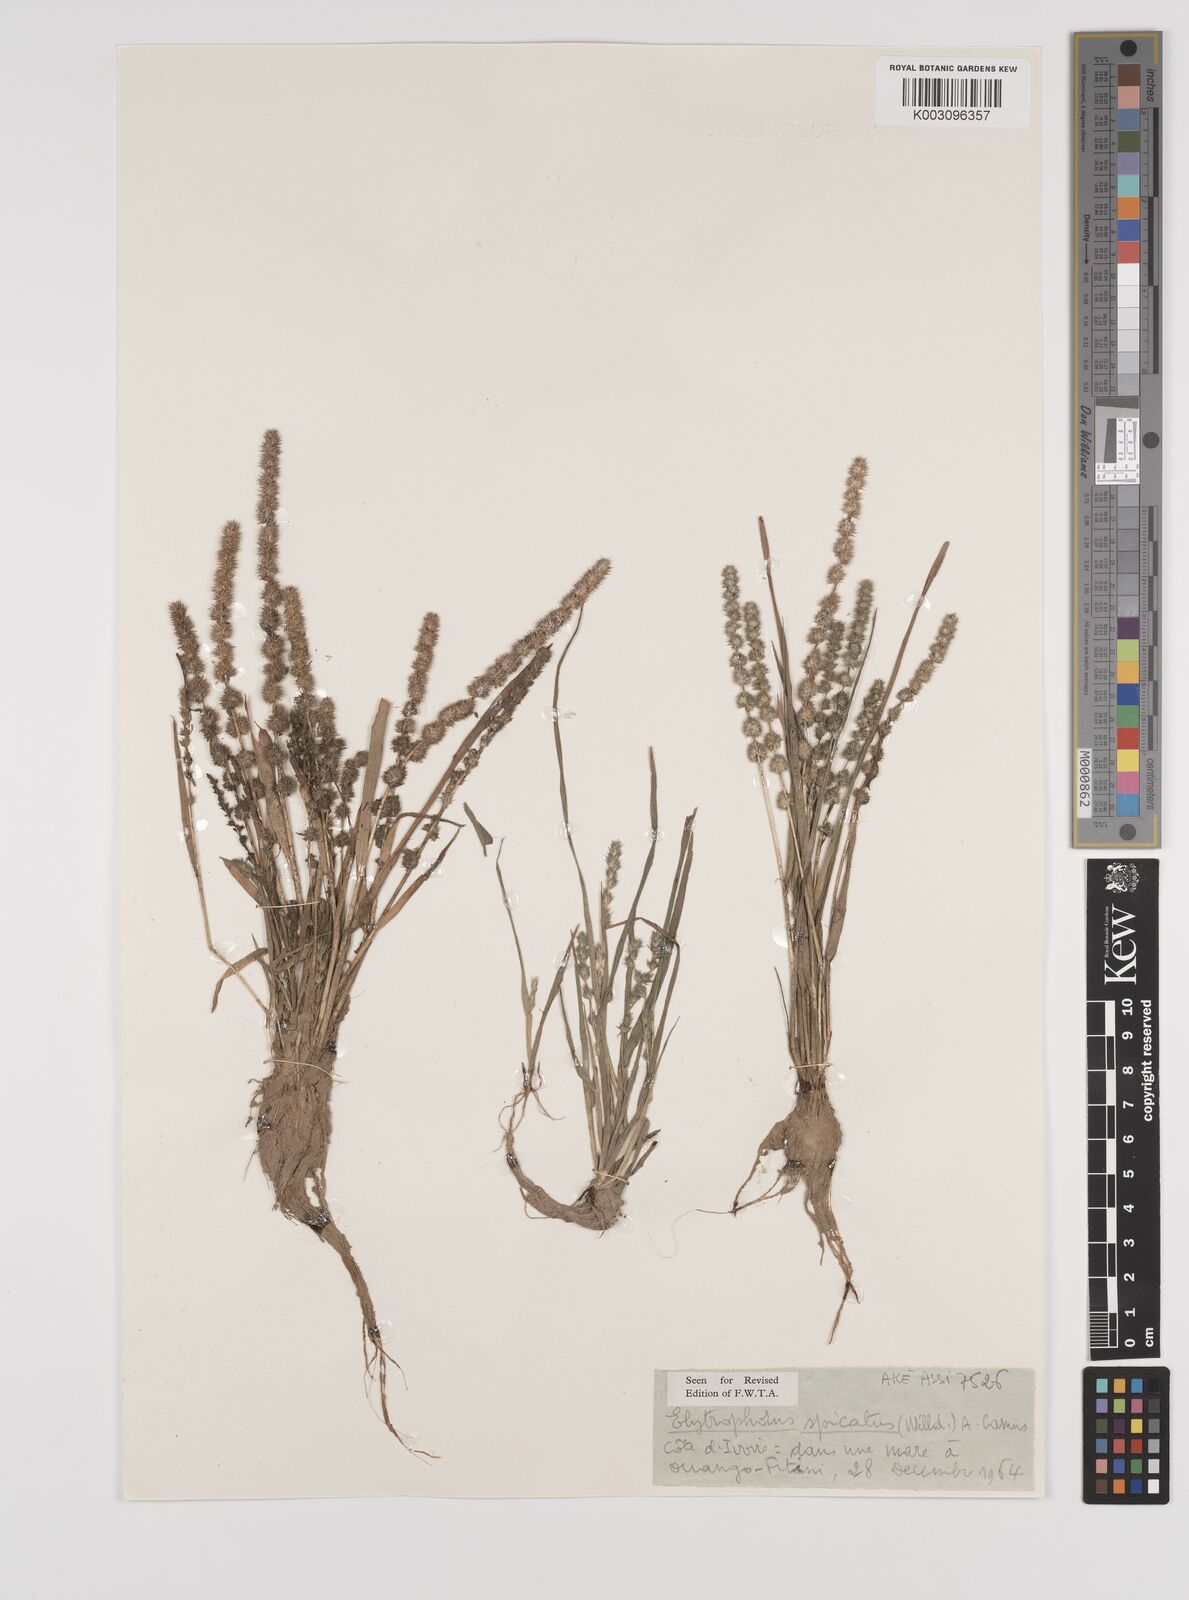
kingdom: Plantae
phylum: Tracheophyta
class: Liliopsida
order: Poales
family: Poaceae
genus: Elytrophorus
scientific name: Elytrophorus spicatus
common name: Spike grass
